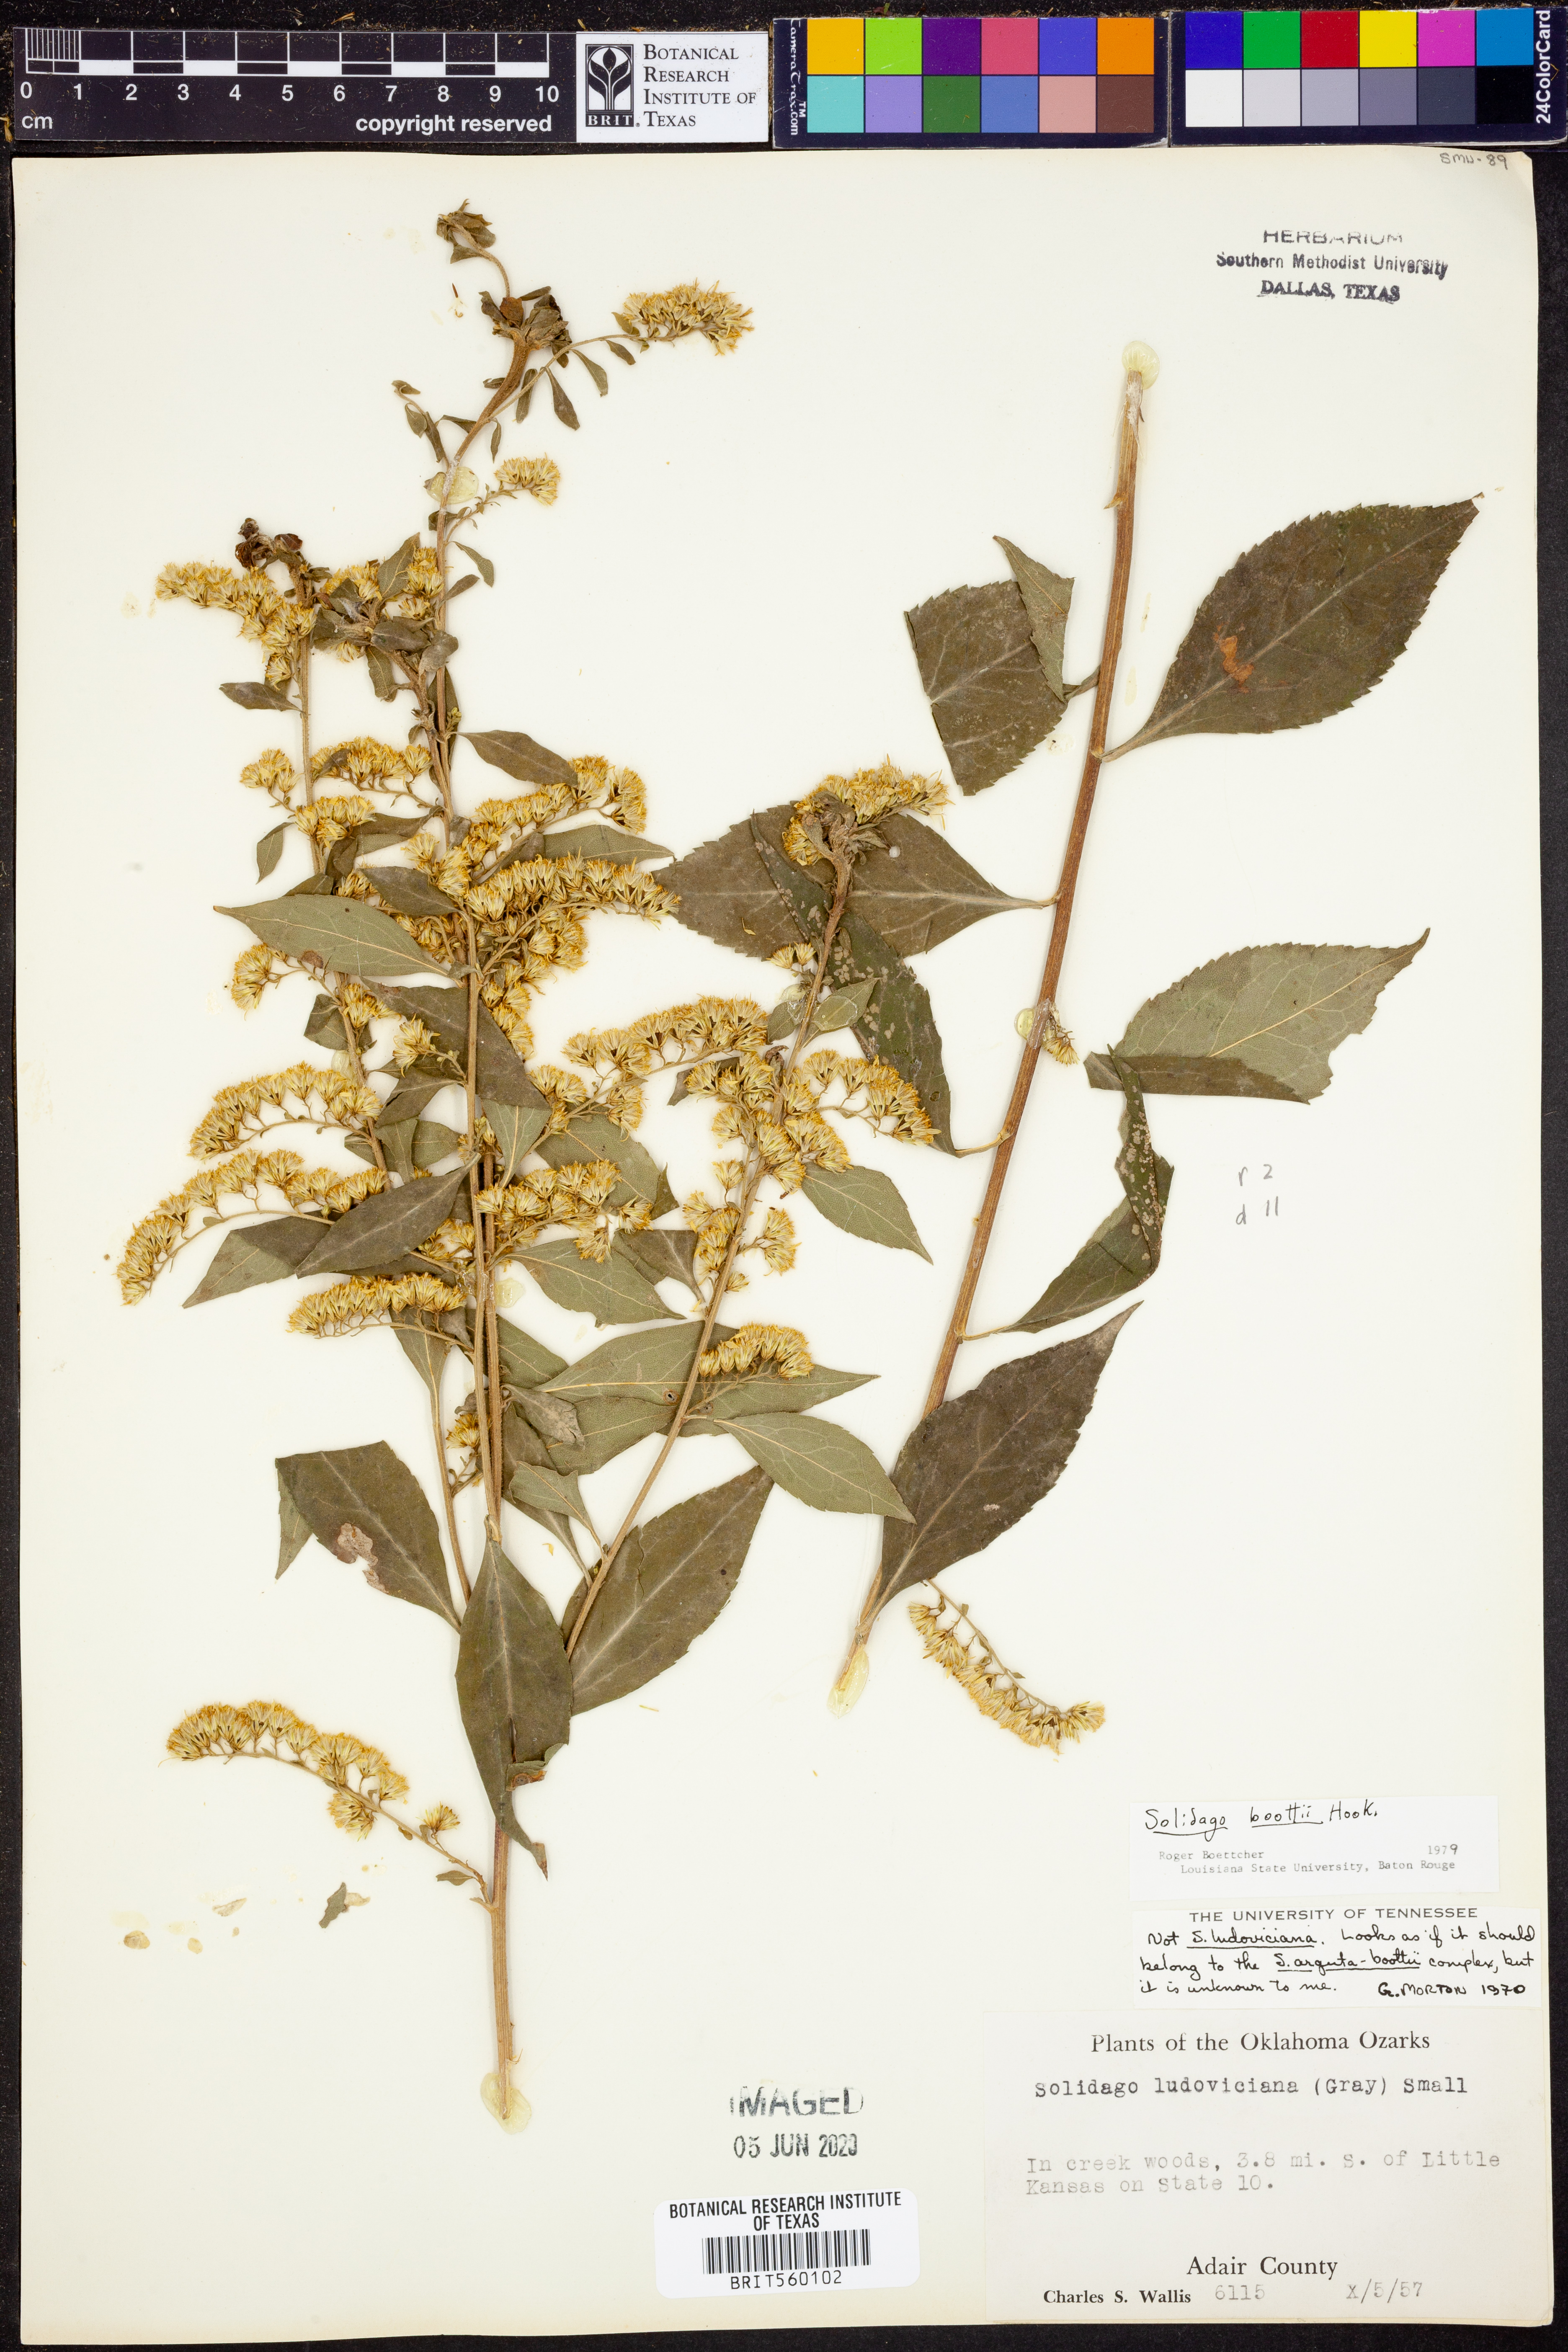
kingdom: Plantae
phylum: Tracheophyta
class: Magnoliopsida
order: Asterales
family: Asteraceae
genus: Solidago
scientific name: Solidago boottii
